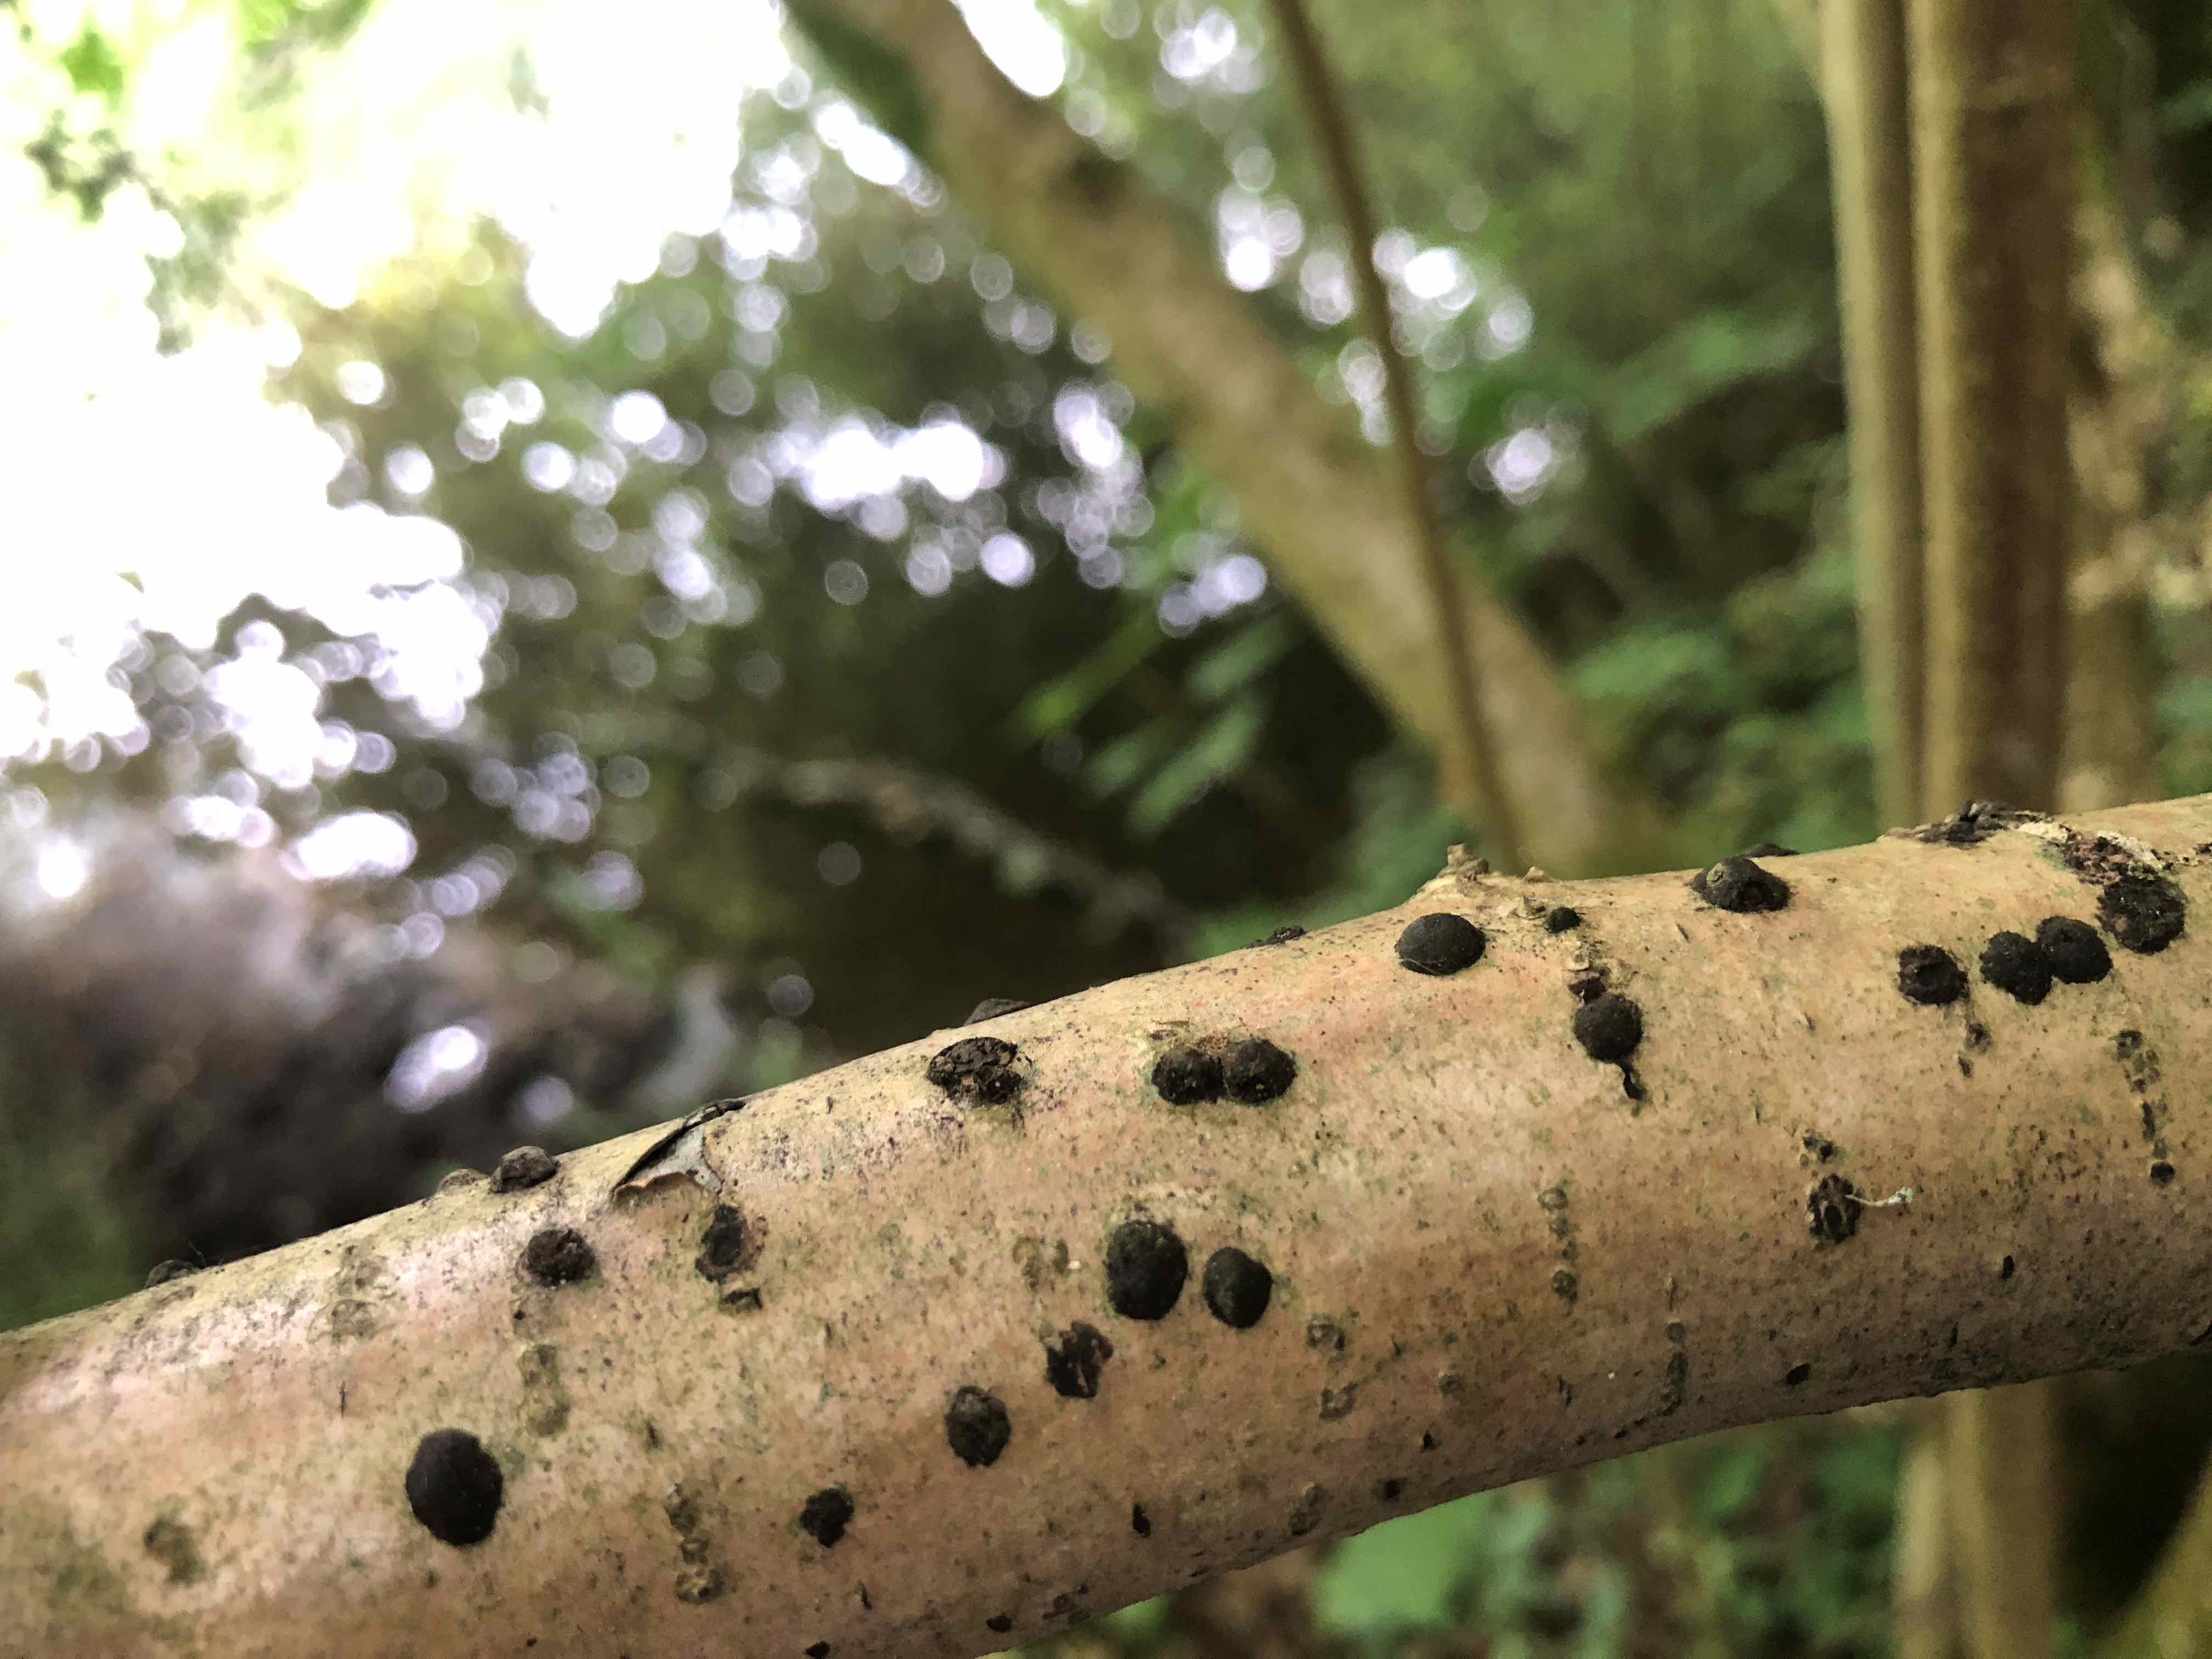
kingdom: Fungi
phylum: Ascomycota
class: Sordariomycetes
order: Xylariales
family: Hypoxylaceae
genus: Hypoxylon
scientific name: Hypoxylon fuscum
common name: kegleformet kulbær
